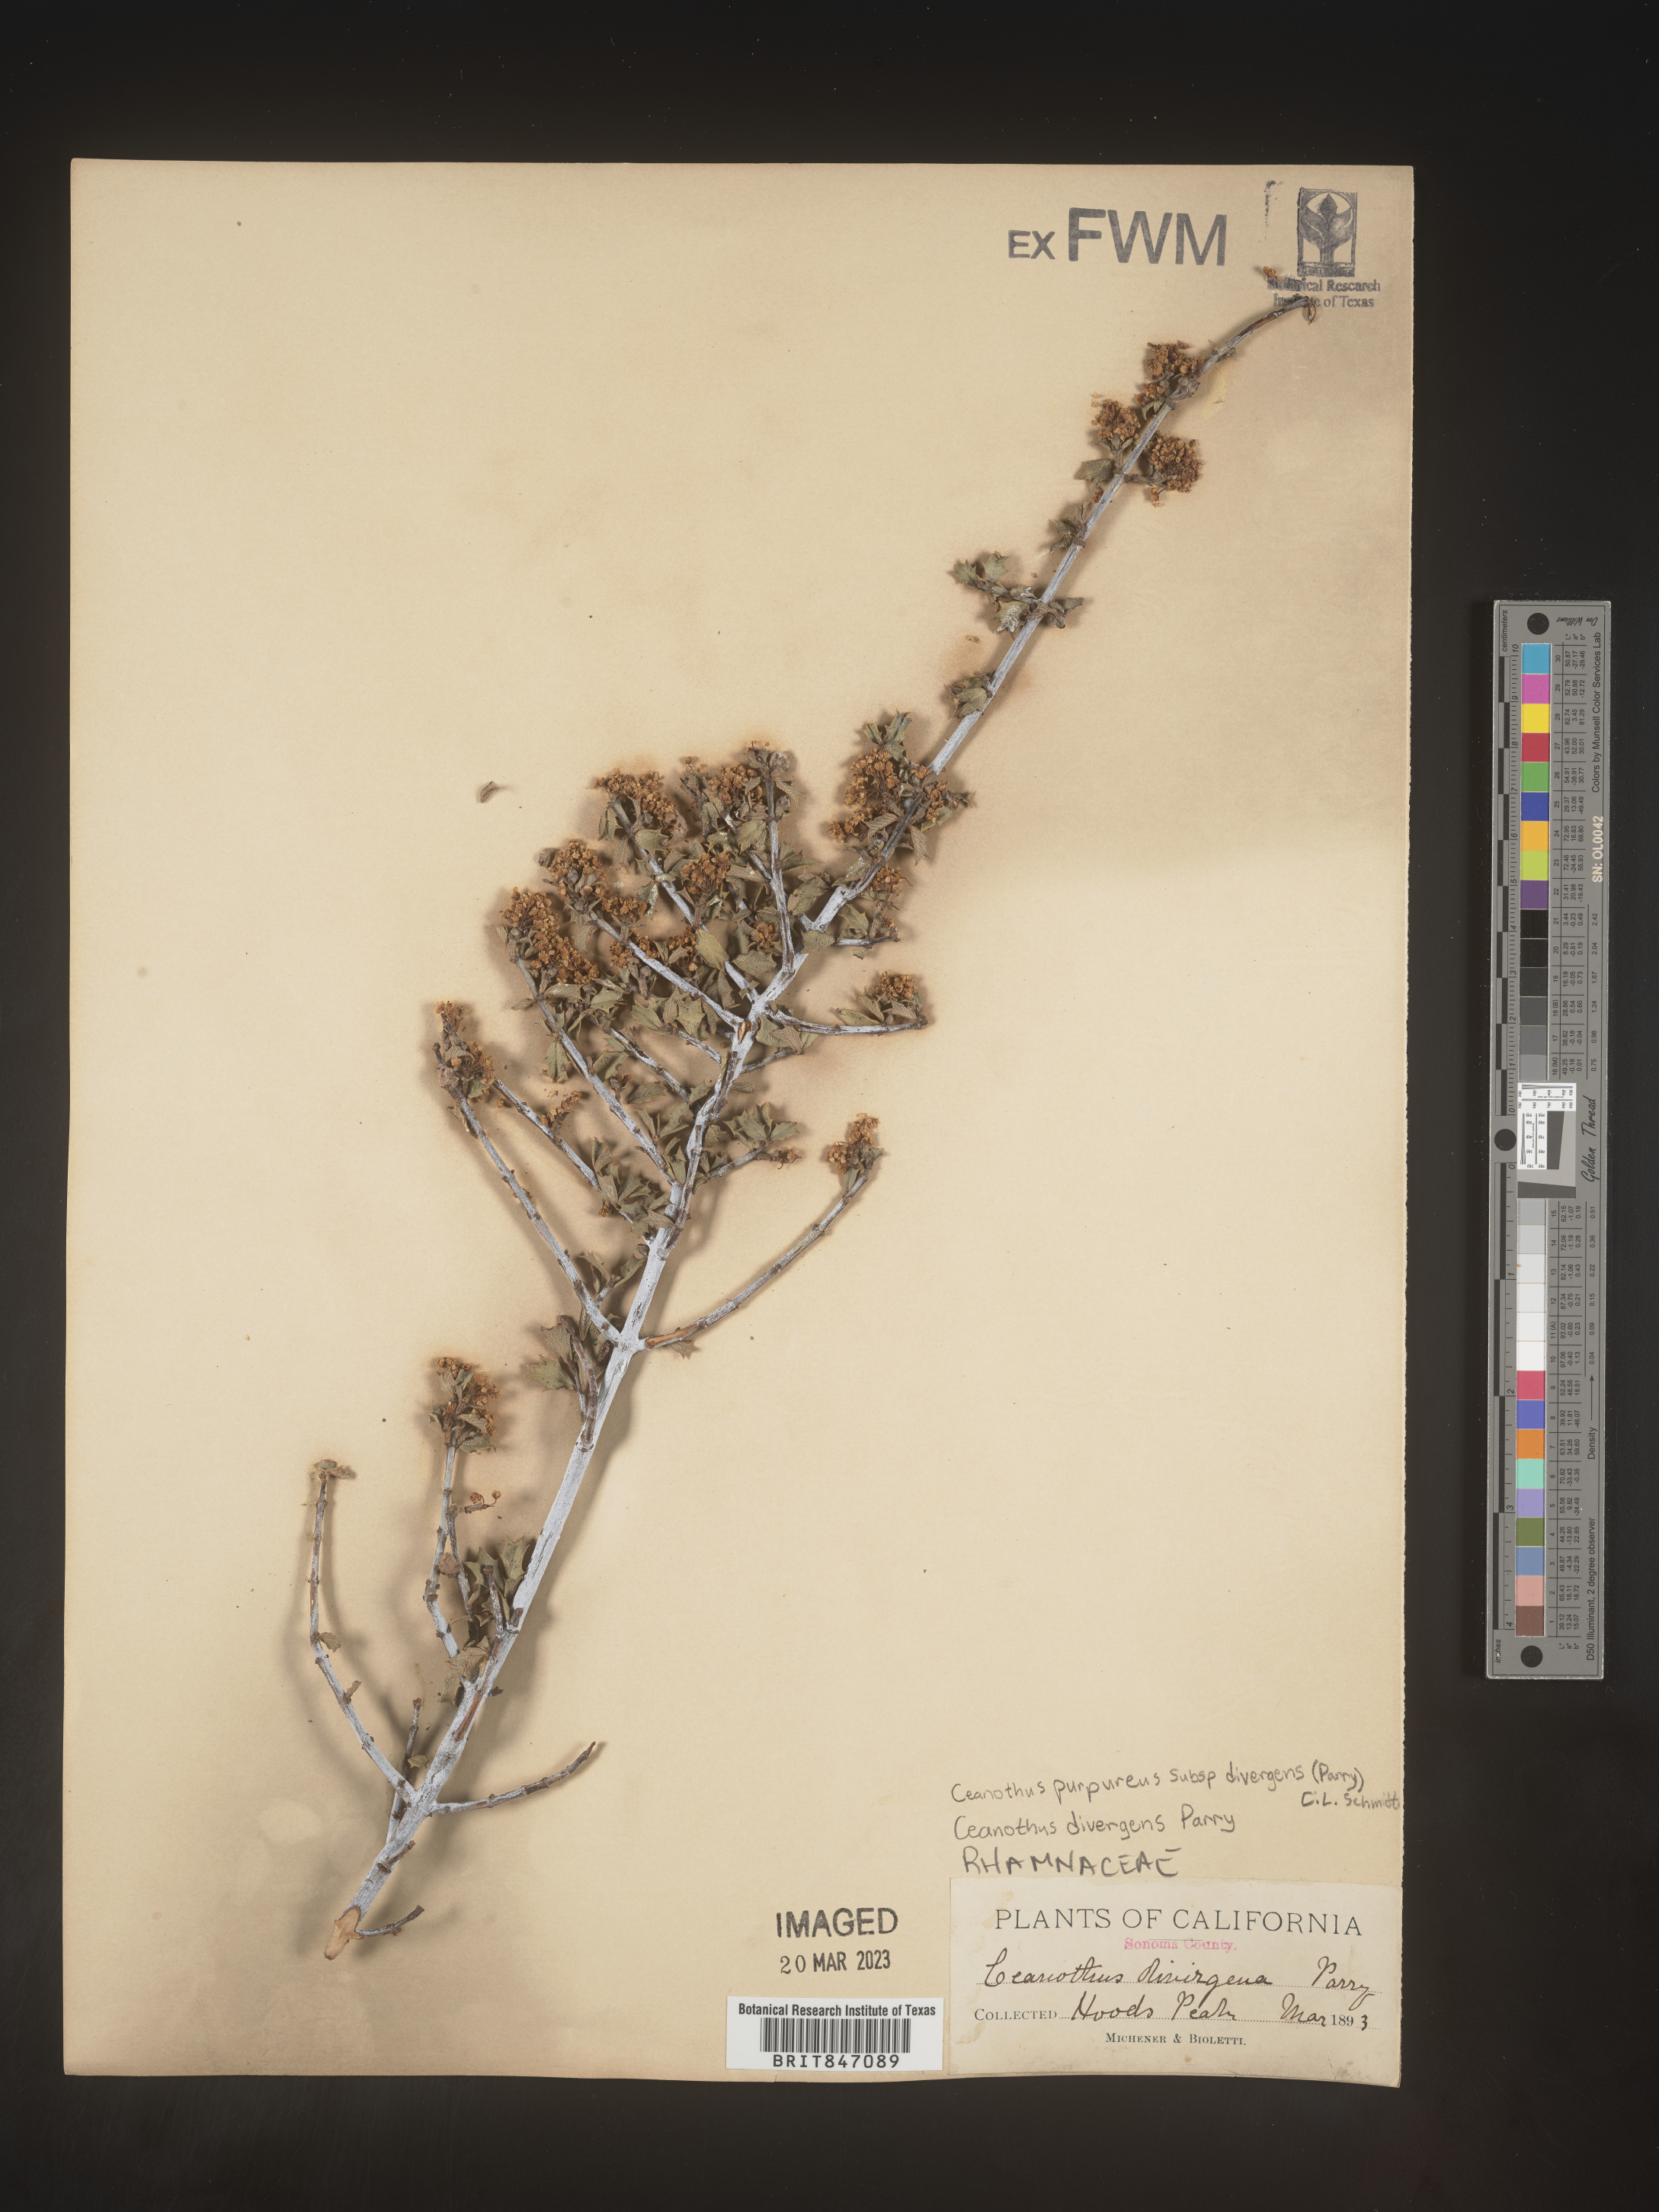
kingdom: Plantae
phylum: Tracheophyta
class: Magnoliopsida
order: Rosales
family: Rhamnaceae
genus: Ceanothus
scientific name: Ceanothus
